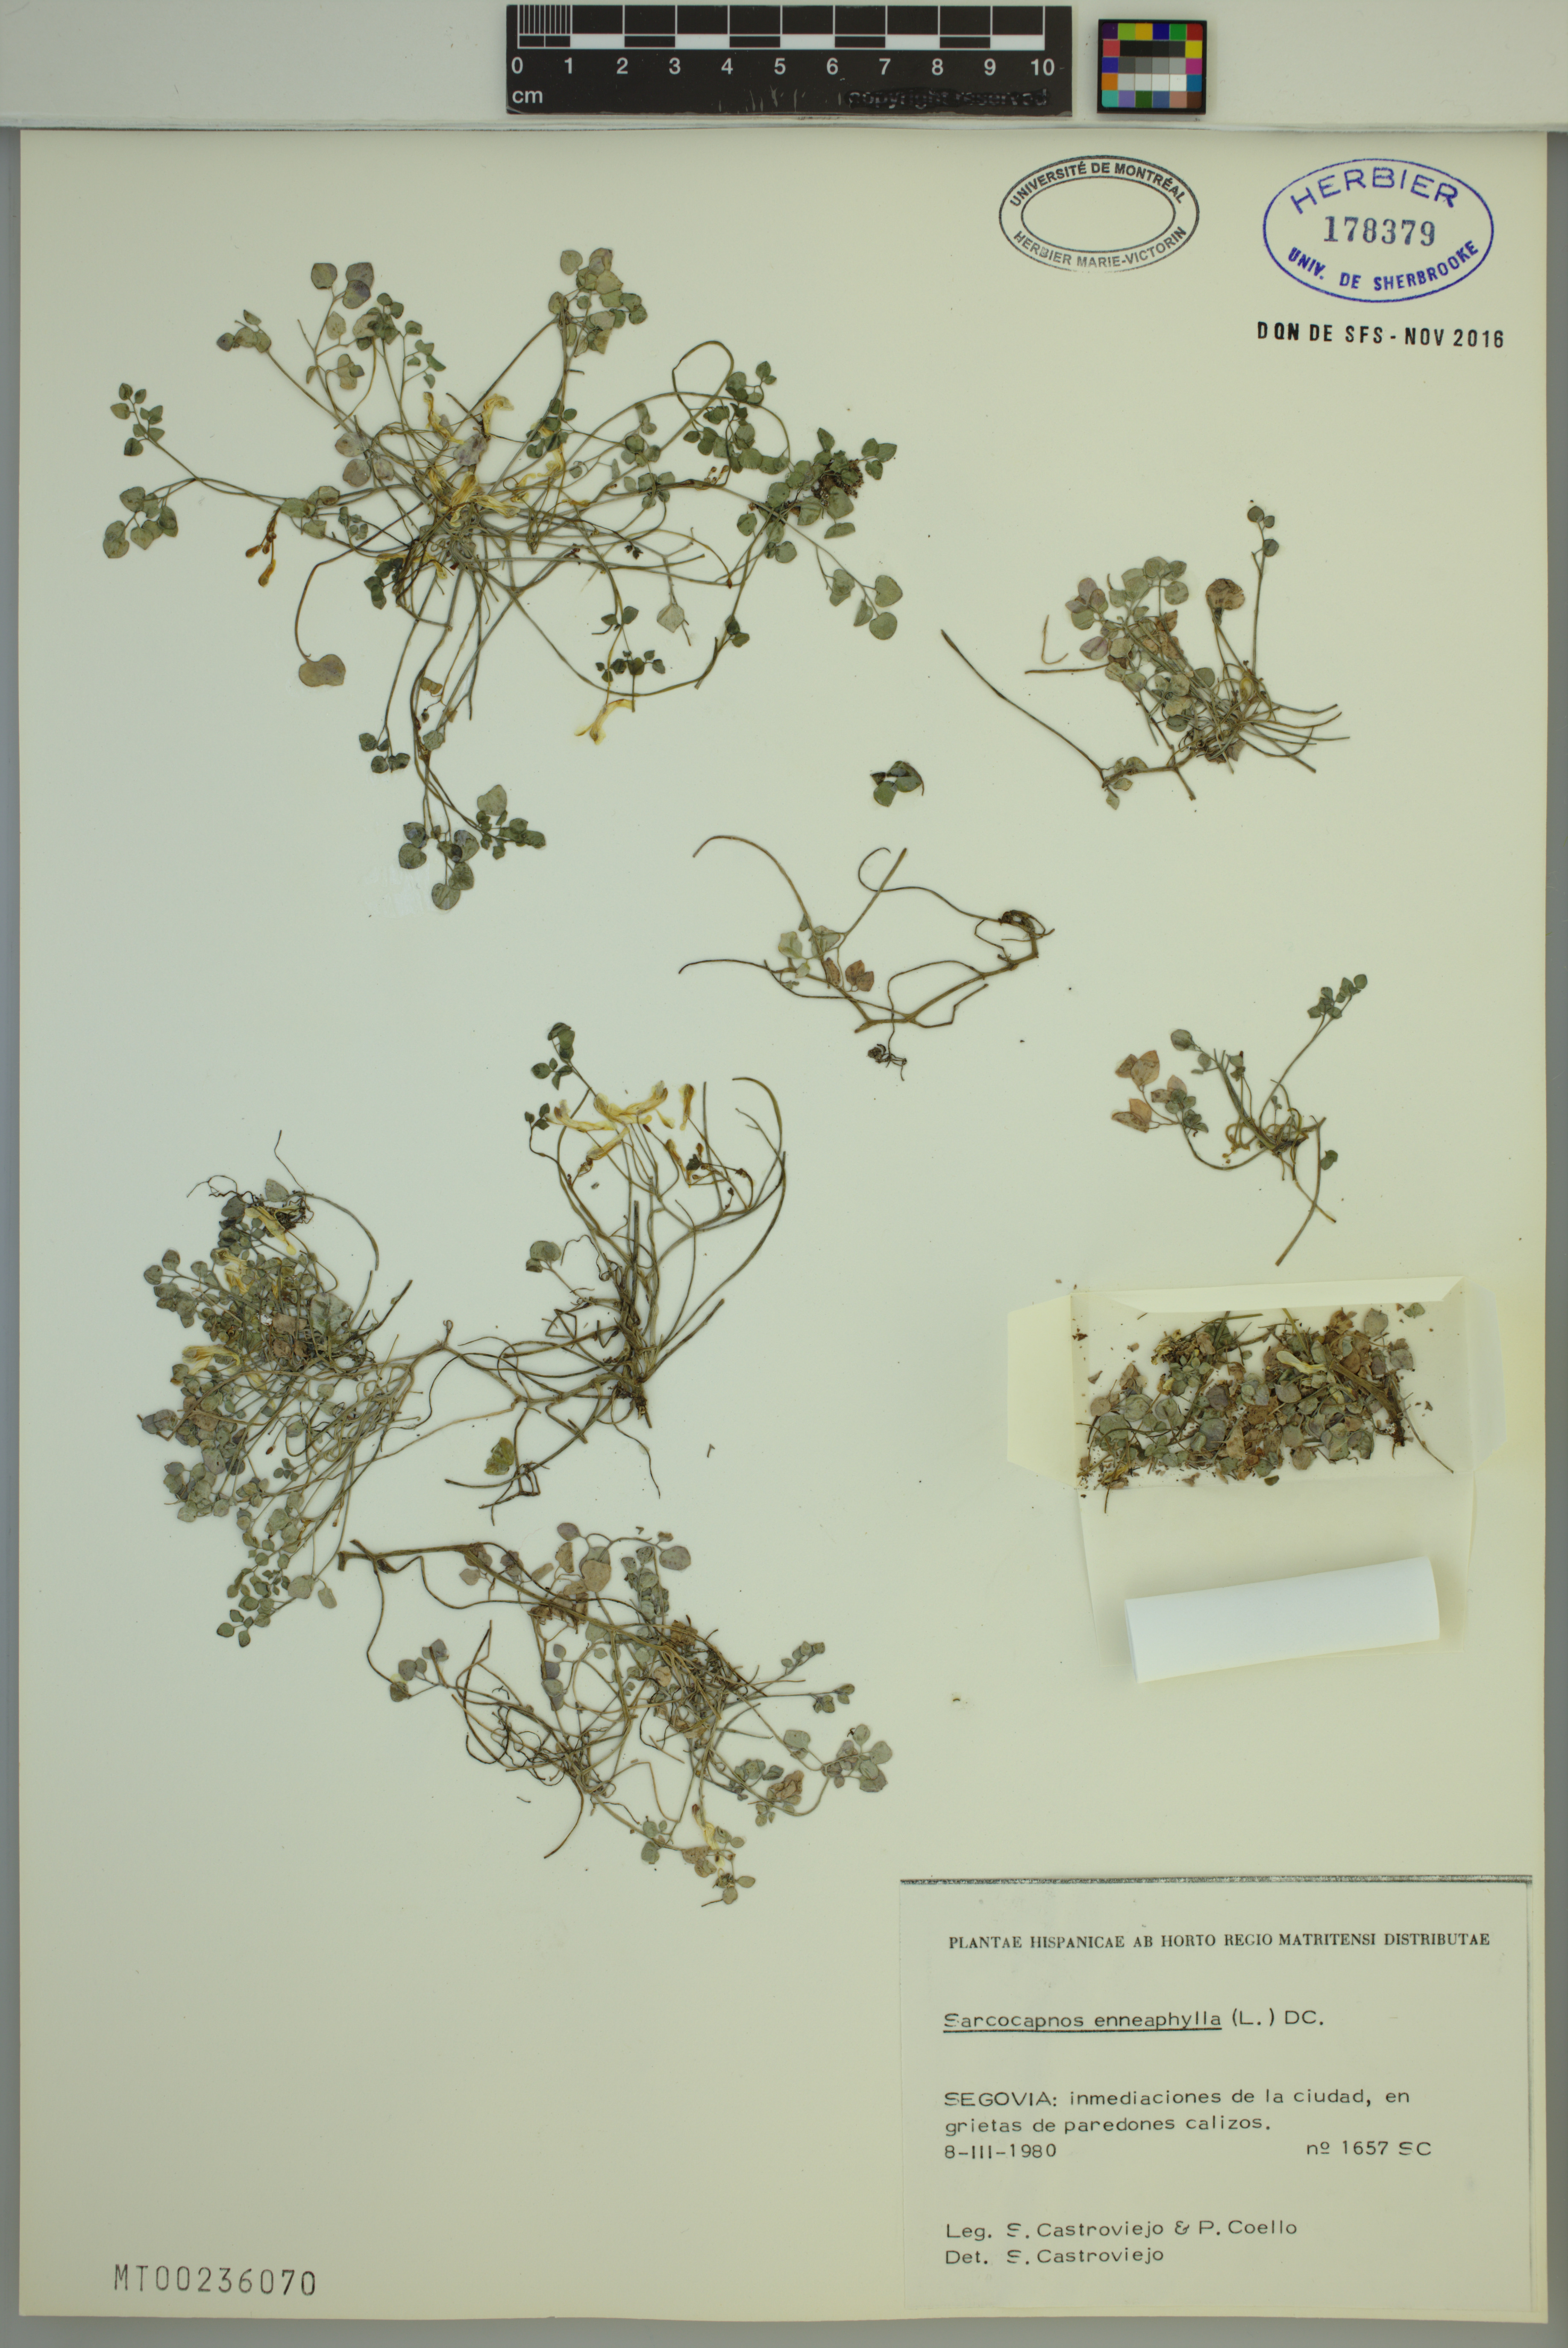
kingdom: Plantae
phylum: Tracheophyta
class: Magnoliopsida
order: Ranunculales
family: Papaveraceae
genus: Sarcocapnos
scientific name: Sarcocapnos enneaphylla
